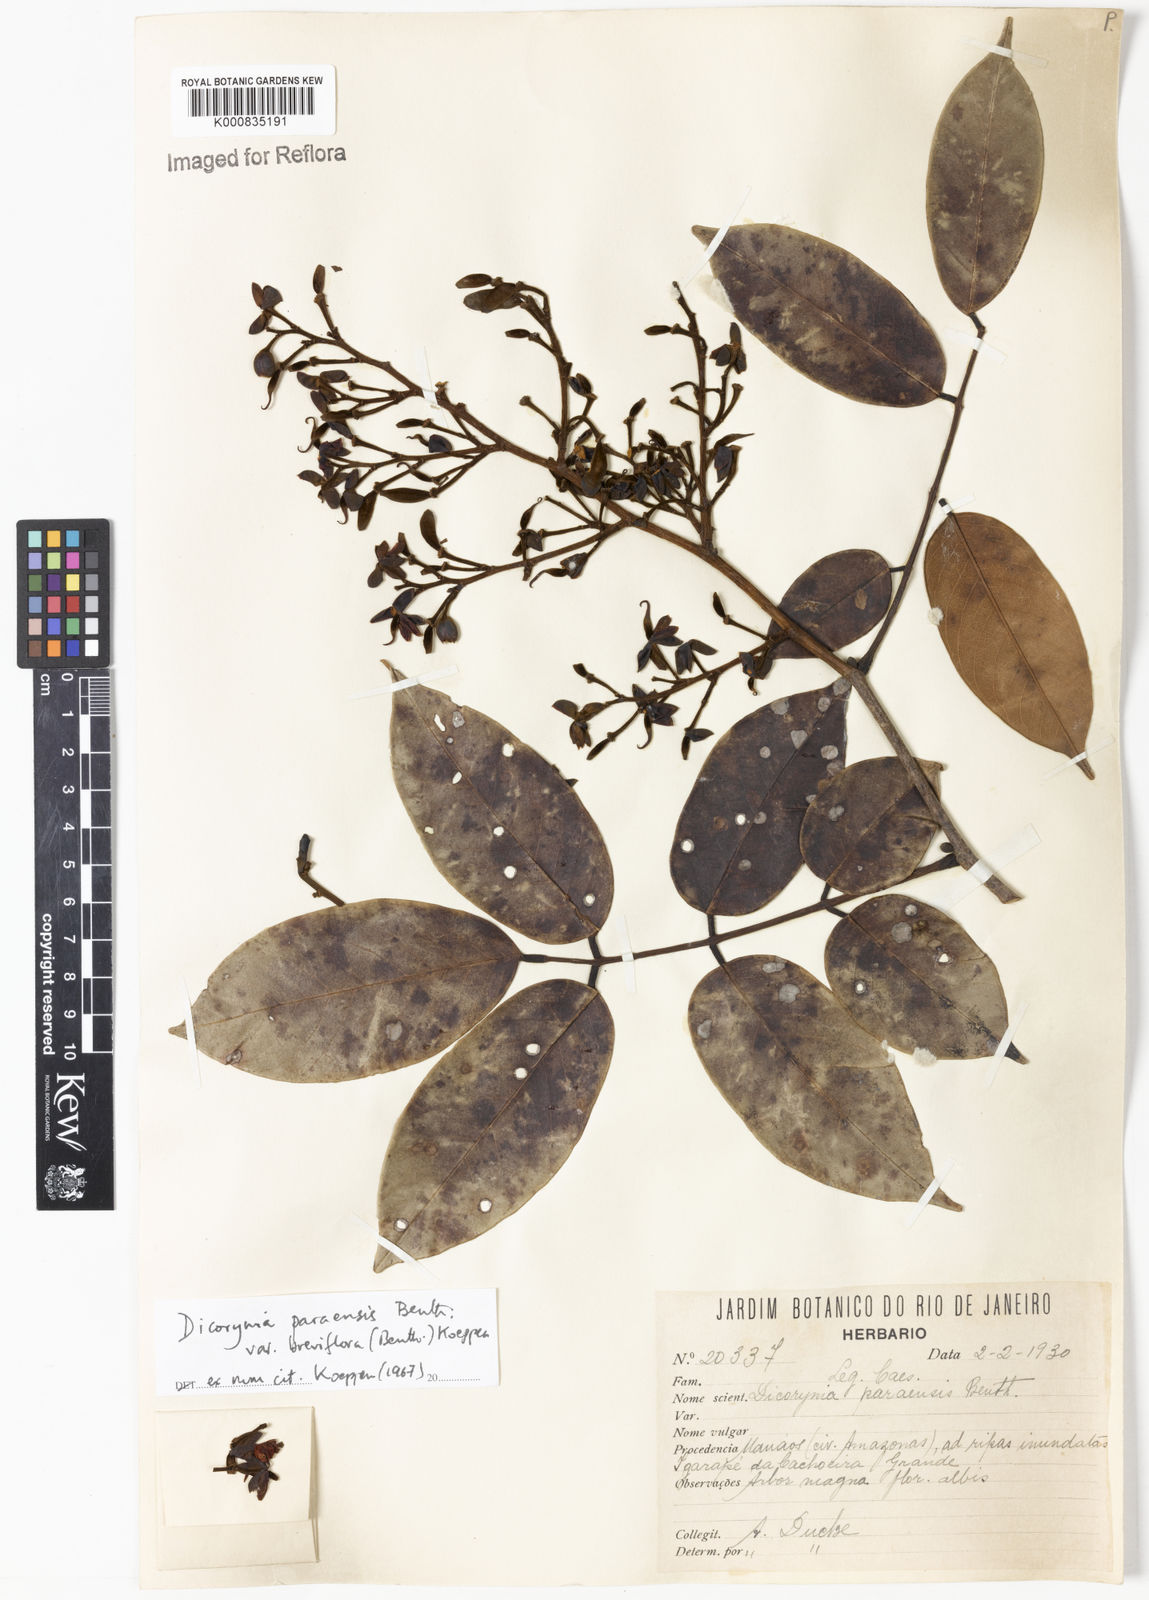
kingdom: Plantae
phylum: Tracheophyta
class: Magnoliopsida
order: Fabales
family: Fabaceae
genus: Dicorynia
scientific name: Dicorynia paraensis
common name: Angelique
